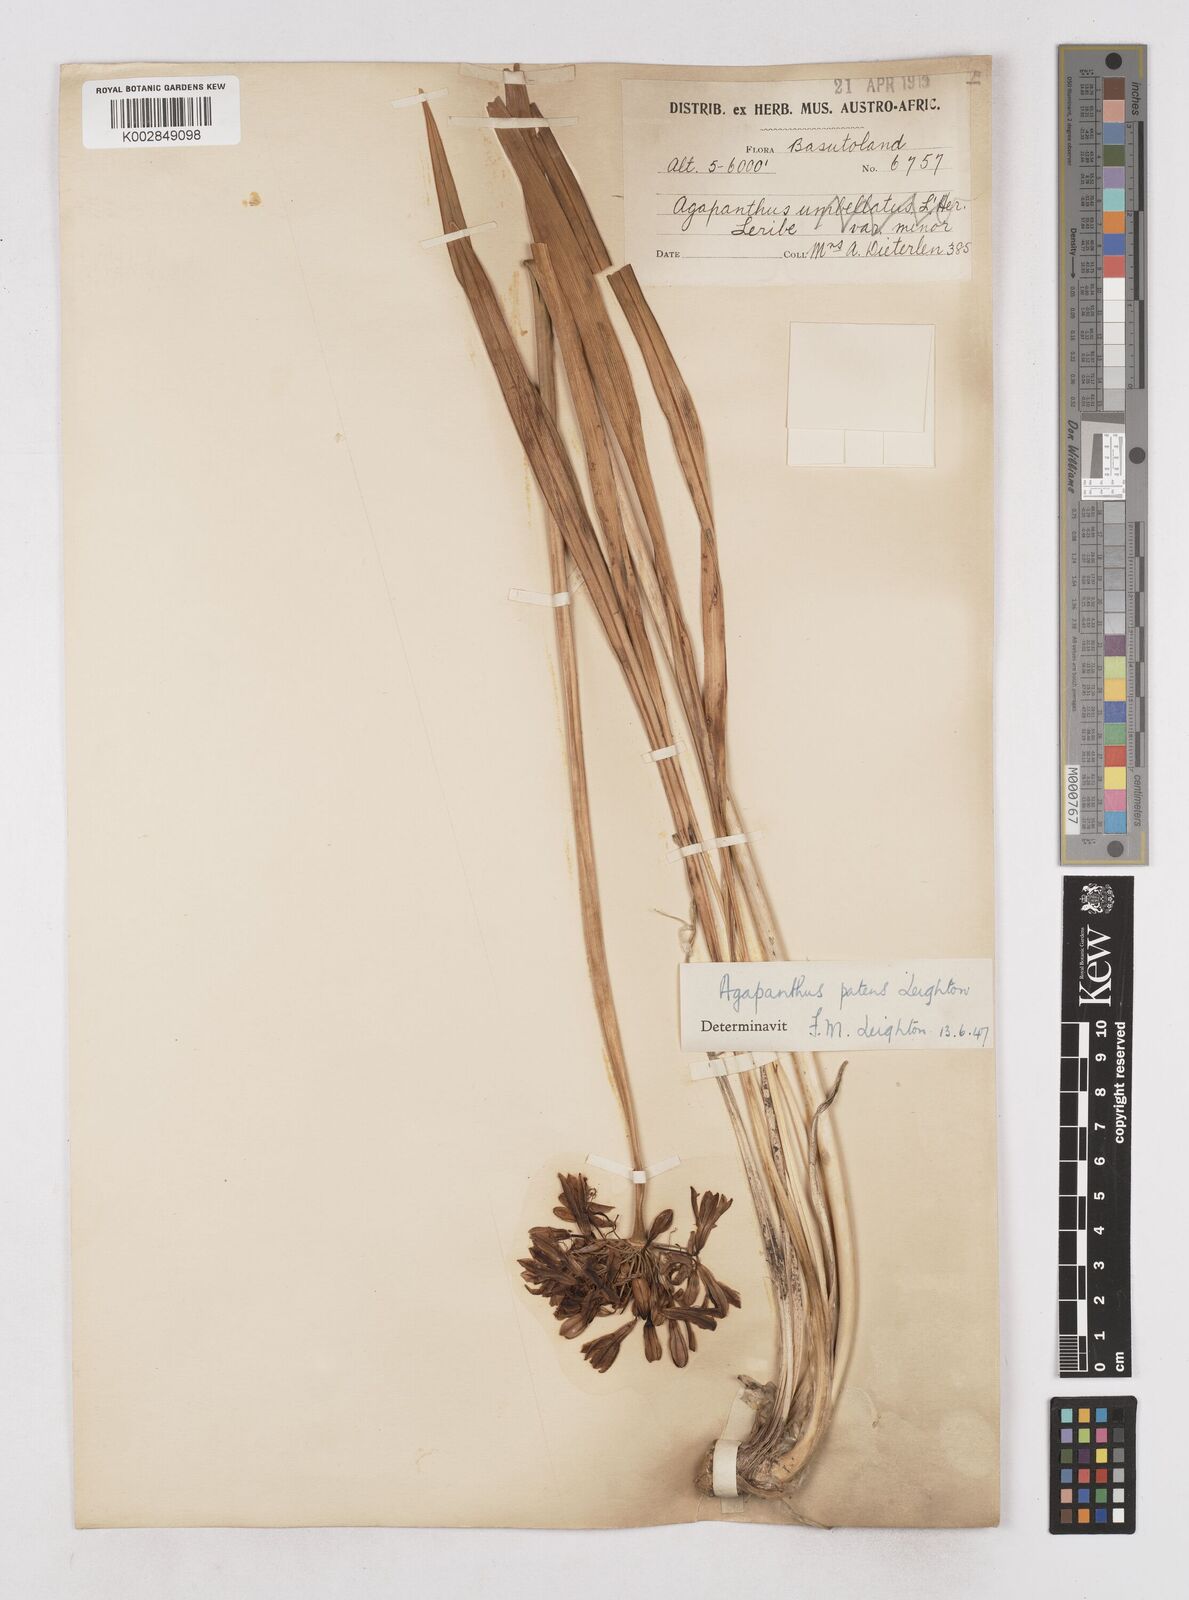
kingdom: Plantae
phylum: Tracheophyta
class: Liliopsida
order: Asparagales
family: Amaryllidaceae
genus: Agapanthus
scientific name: Agapanthus campanulatus
